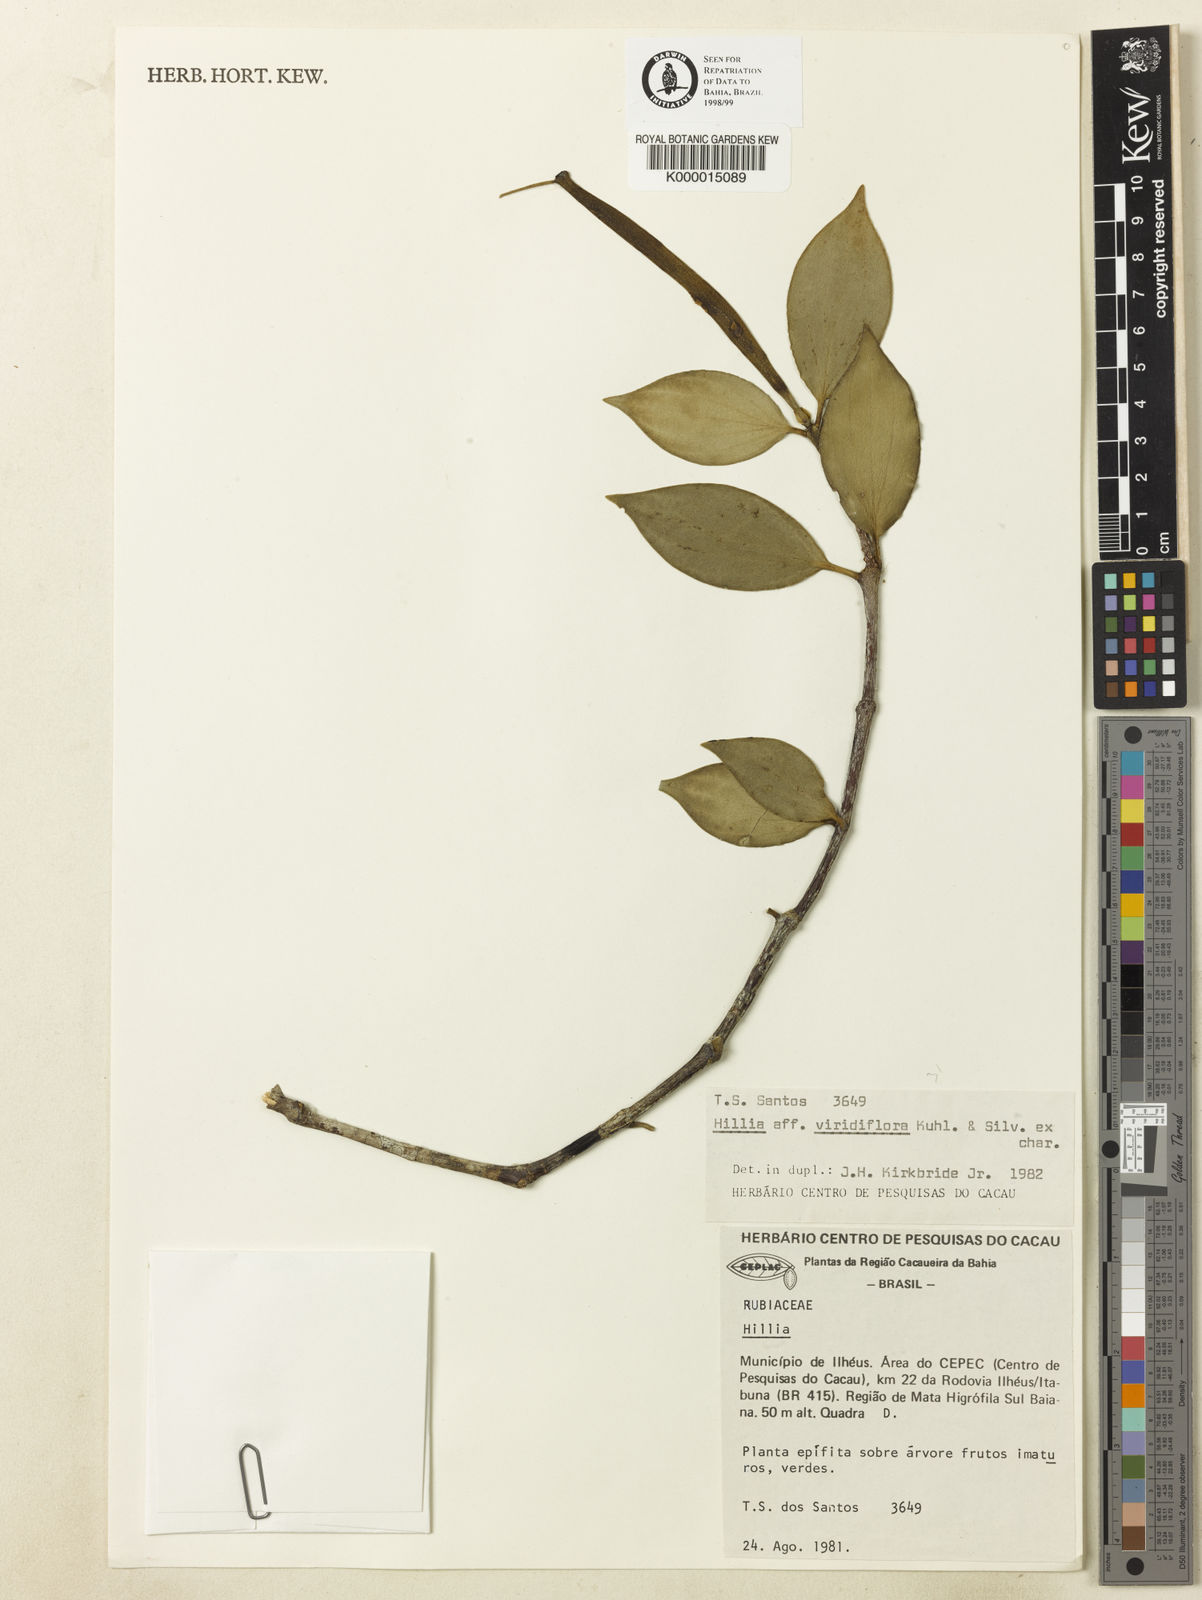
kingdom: Plantae
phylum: Tracheophyta
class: Magnoliopsida
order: Gentianales
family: Rubiaceae
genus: Hillia
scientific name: Hillia ulei
